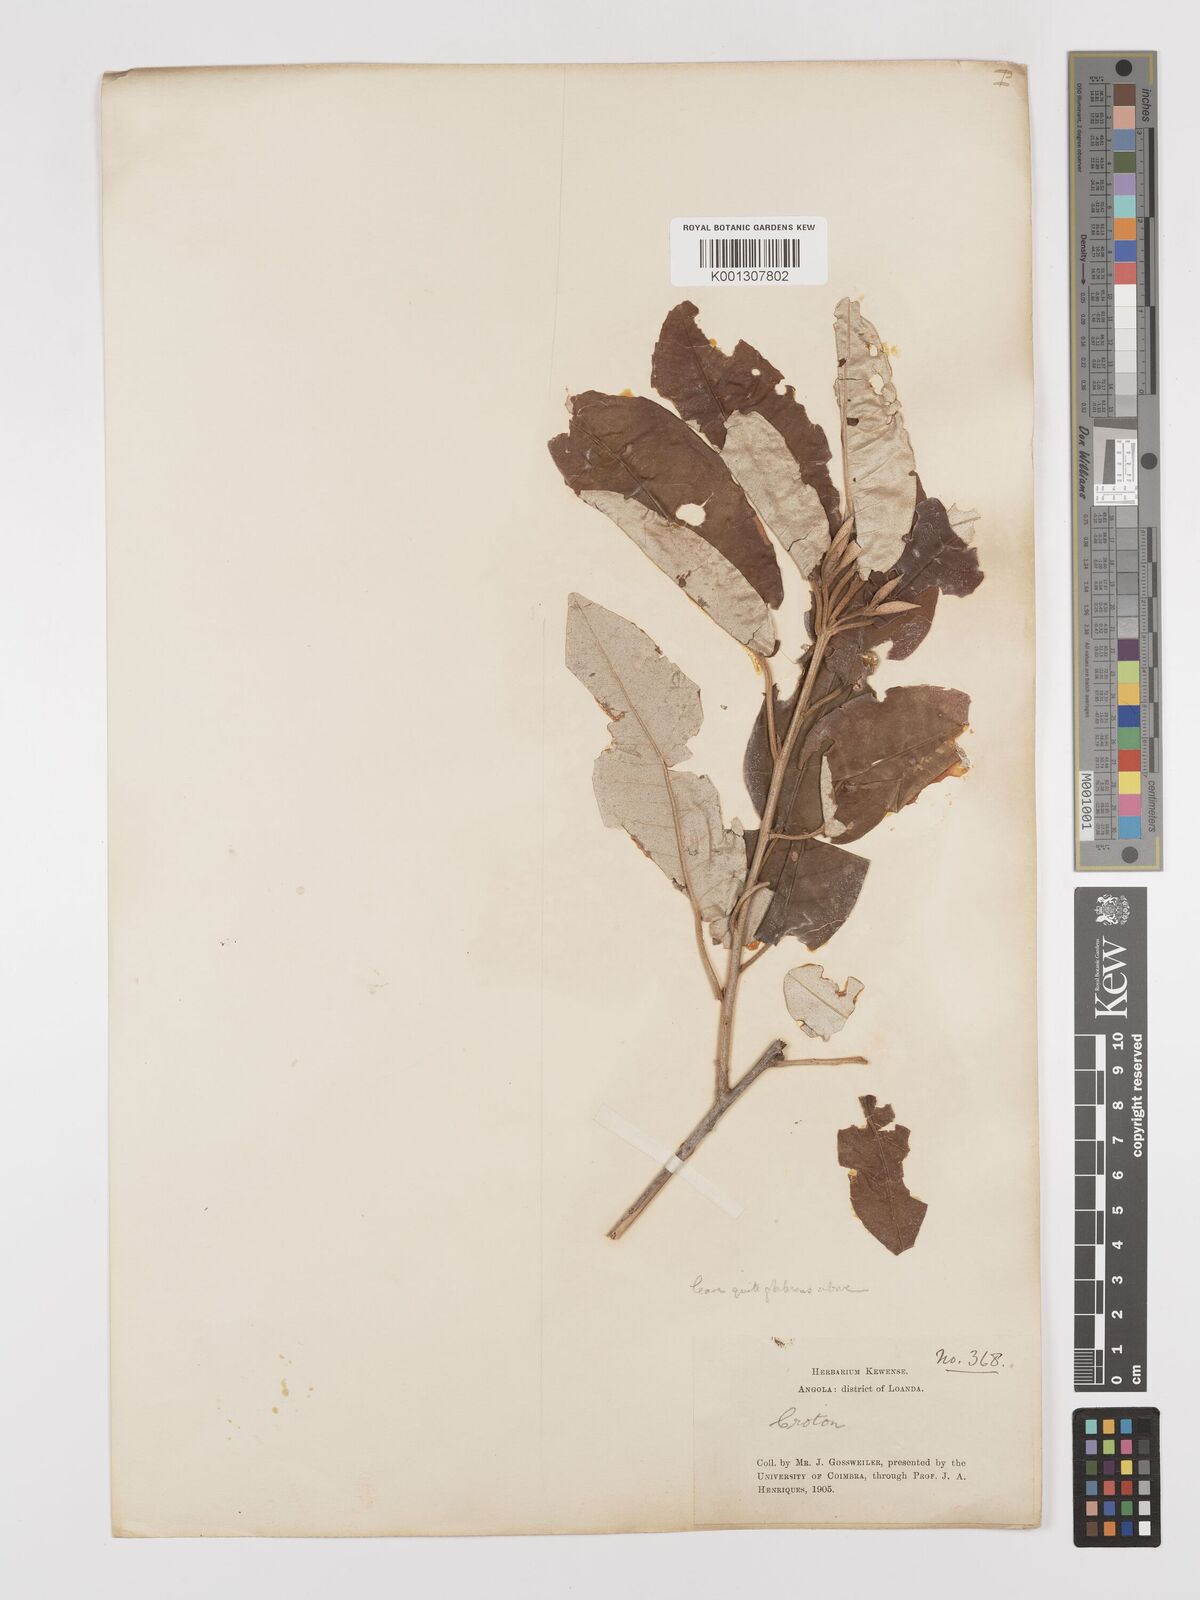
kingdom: Plantae
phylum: Tracheophyta
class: Magnoliopsida
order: Malpighiales
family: Euphorbiaceae
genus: Croton
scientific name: Croton gratissimus
